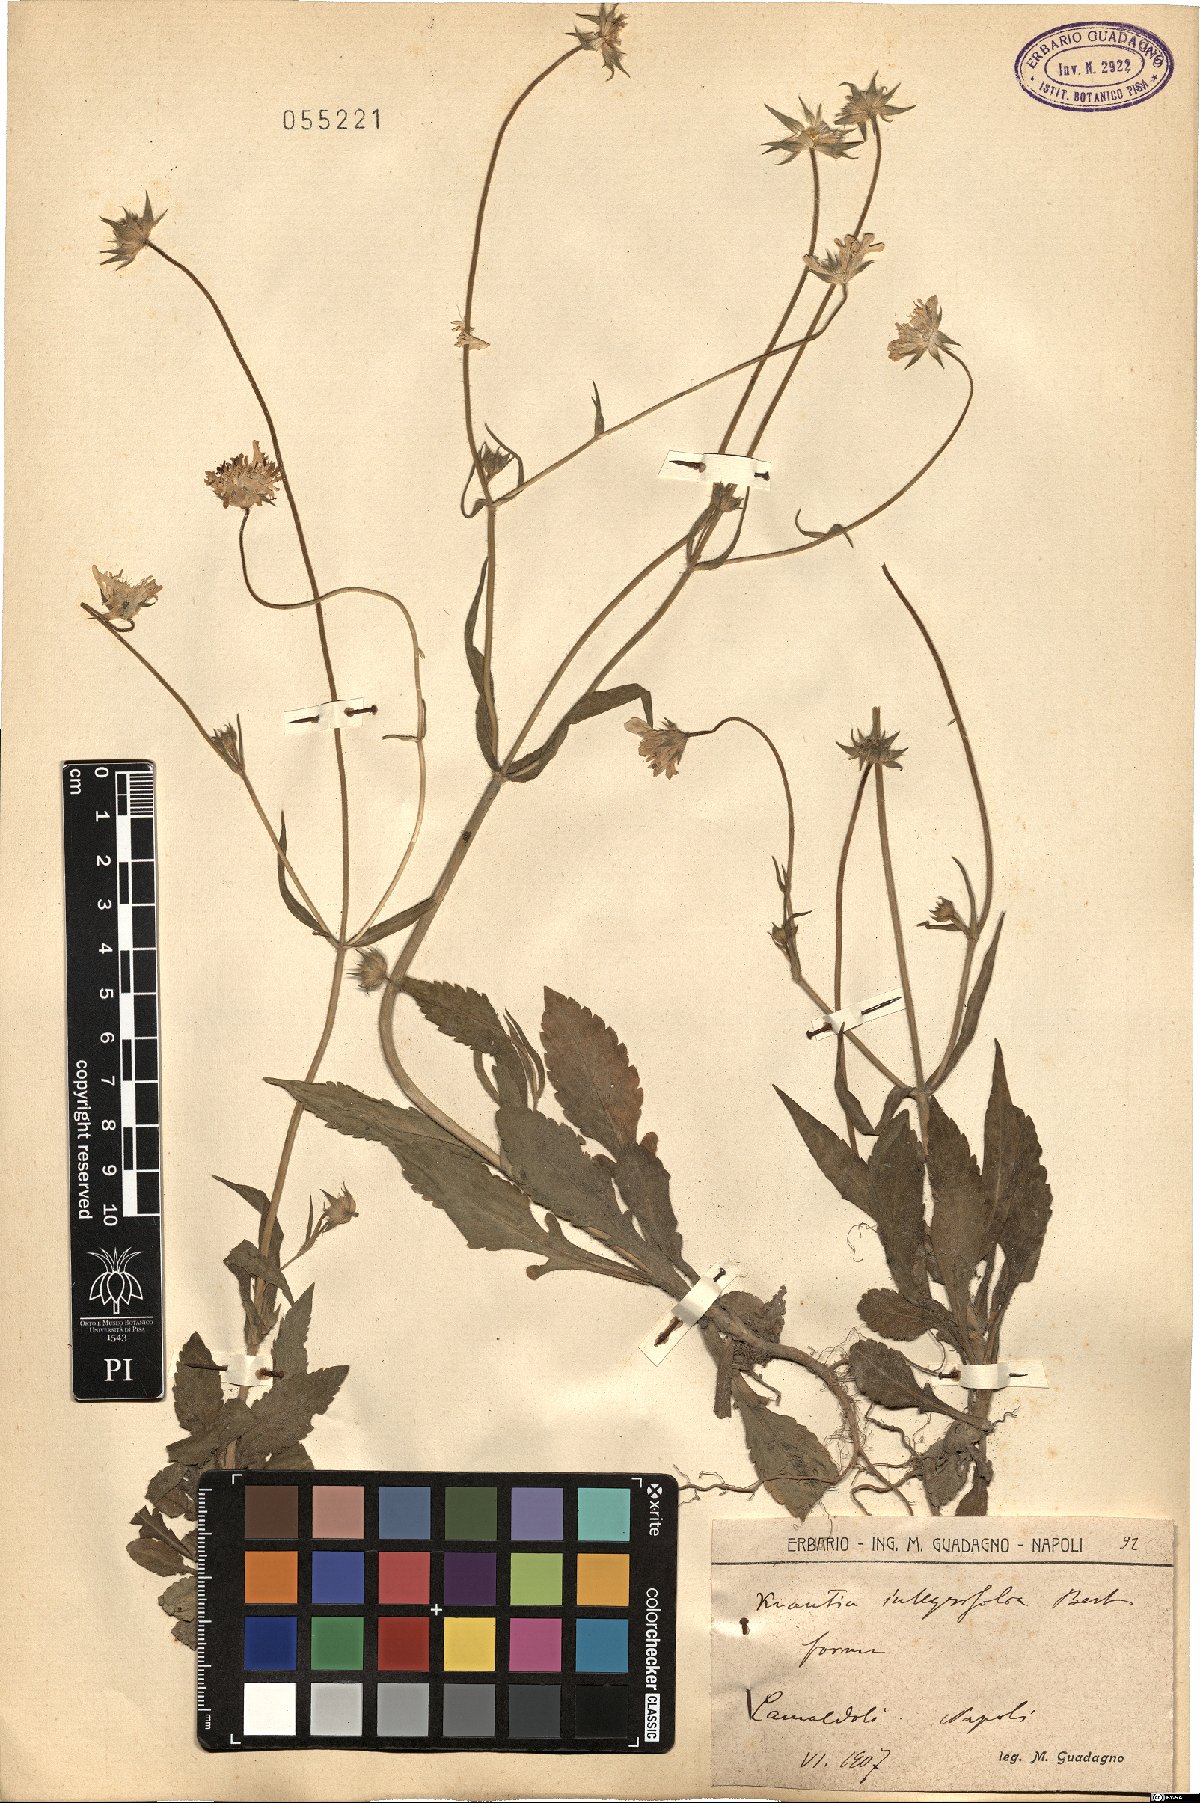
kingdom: Plantae
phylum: Tracheophyta
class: Magnoliopsida
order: Dipsacales
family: Caprifoliaceae
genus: Knautia
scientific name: Knautia integrifolia
